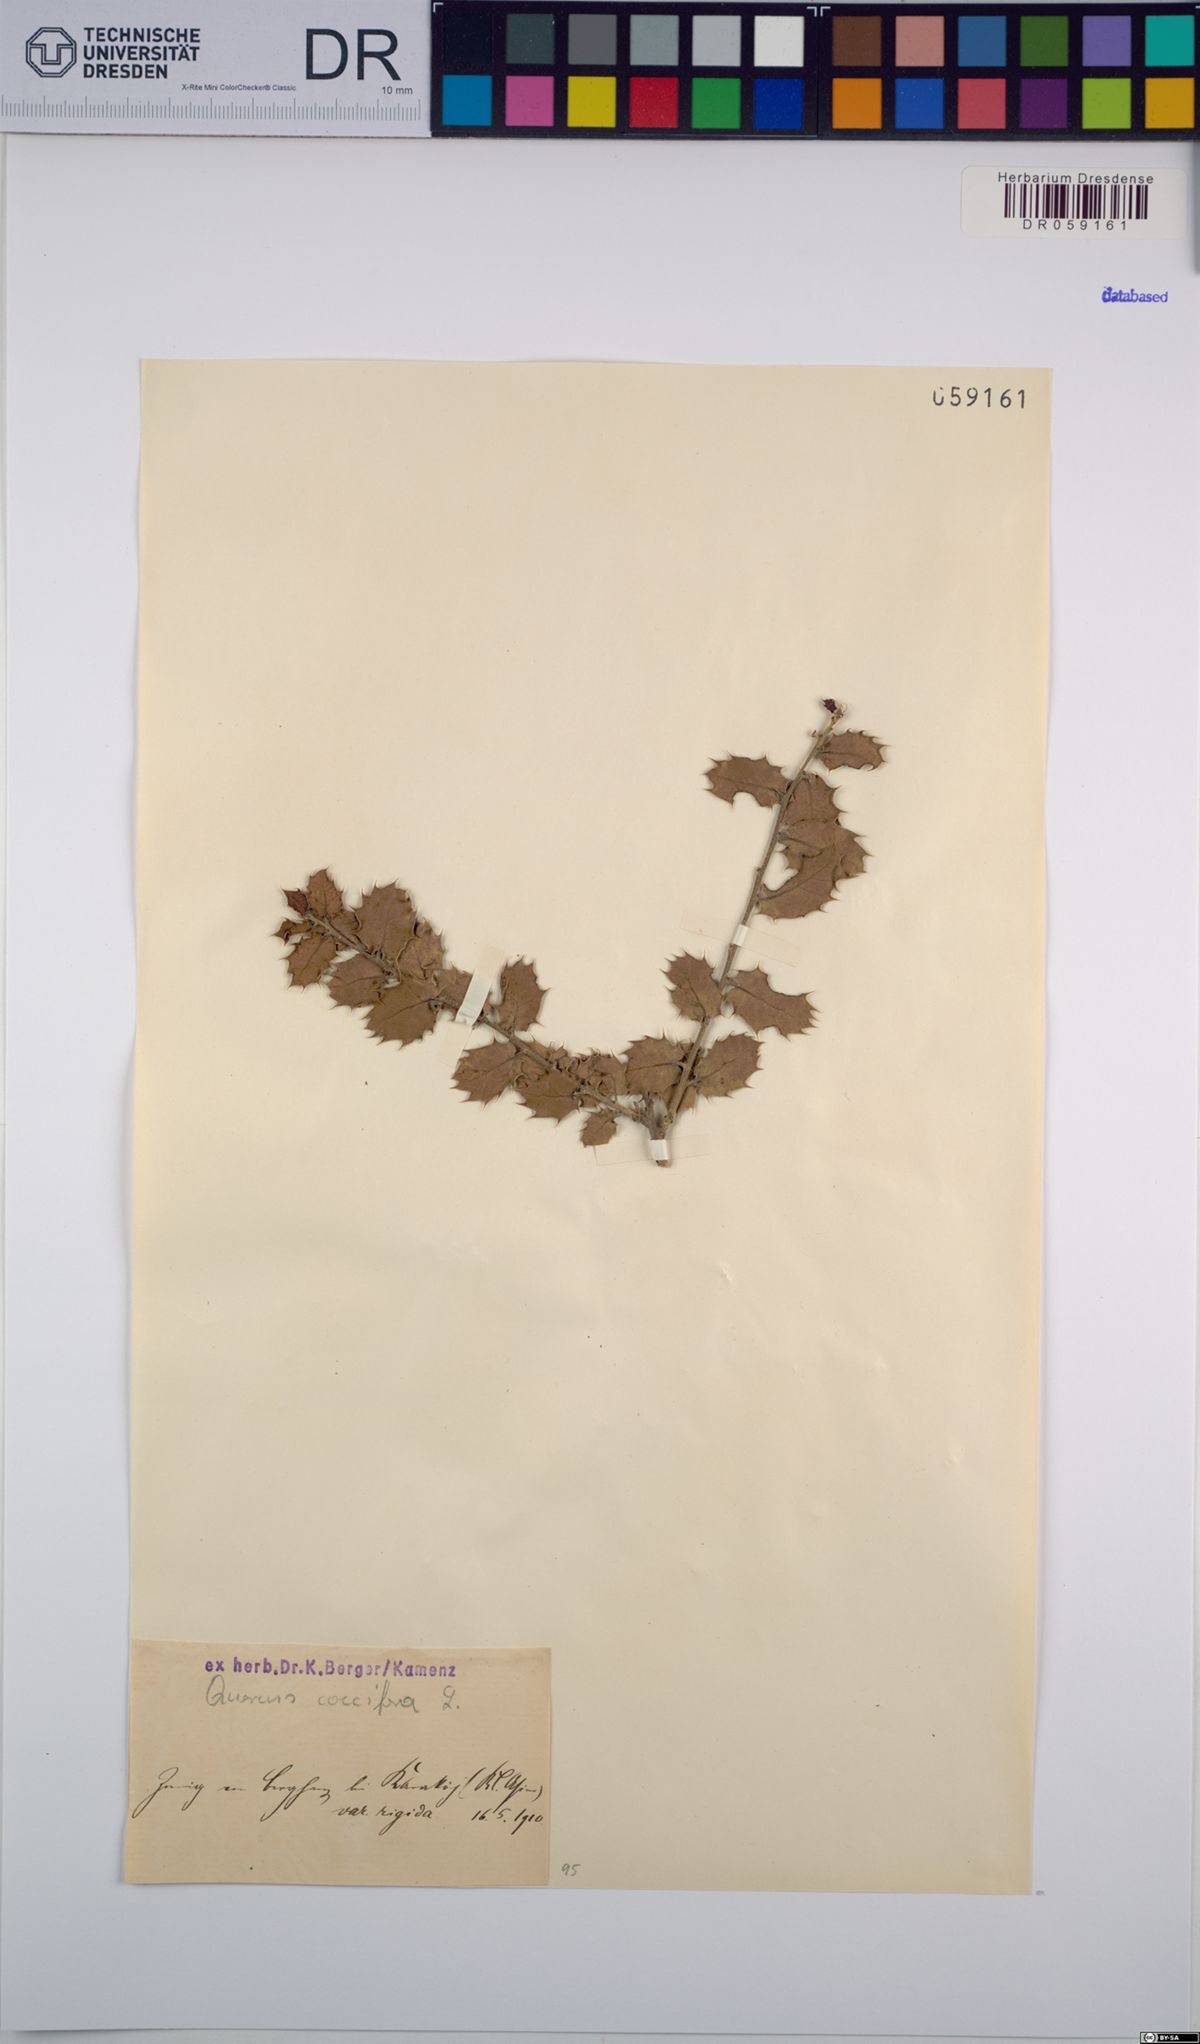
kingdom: Plantae
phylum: Tracheophyta
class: Magnoliopsida
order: Fagales
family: Fagaceae
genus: Quercus
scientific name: Quercus coccifera
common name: Kermes oak
